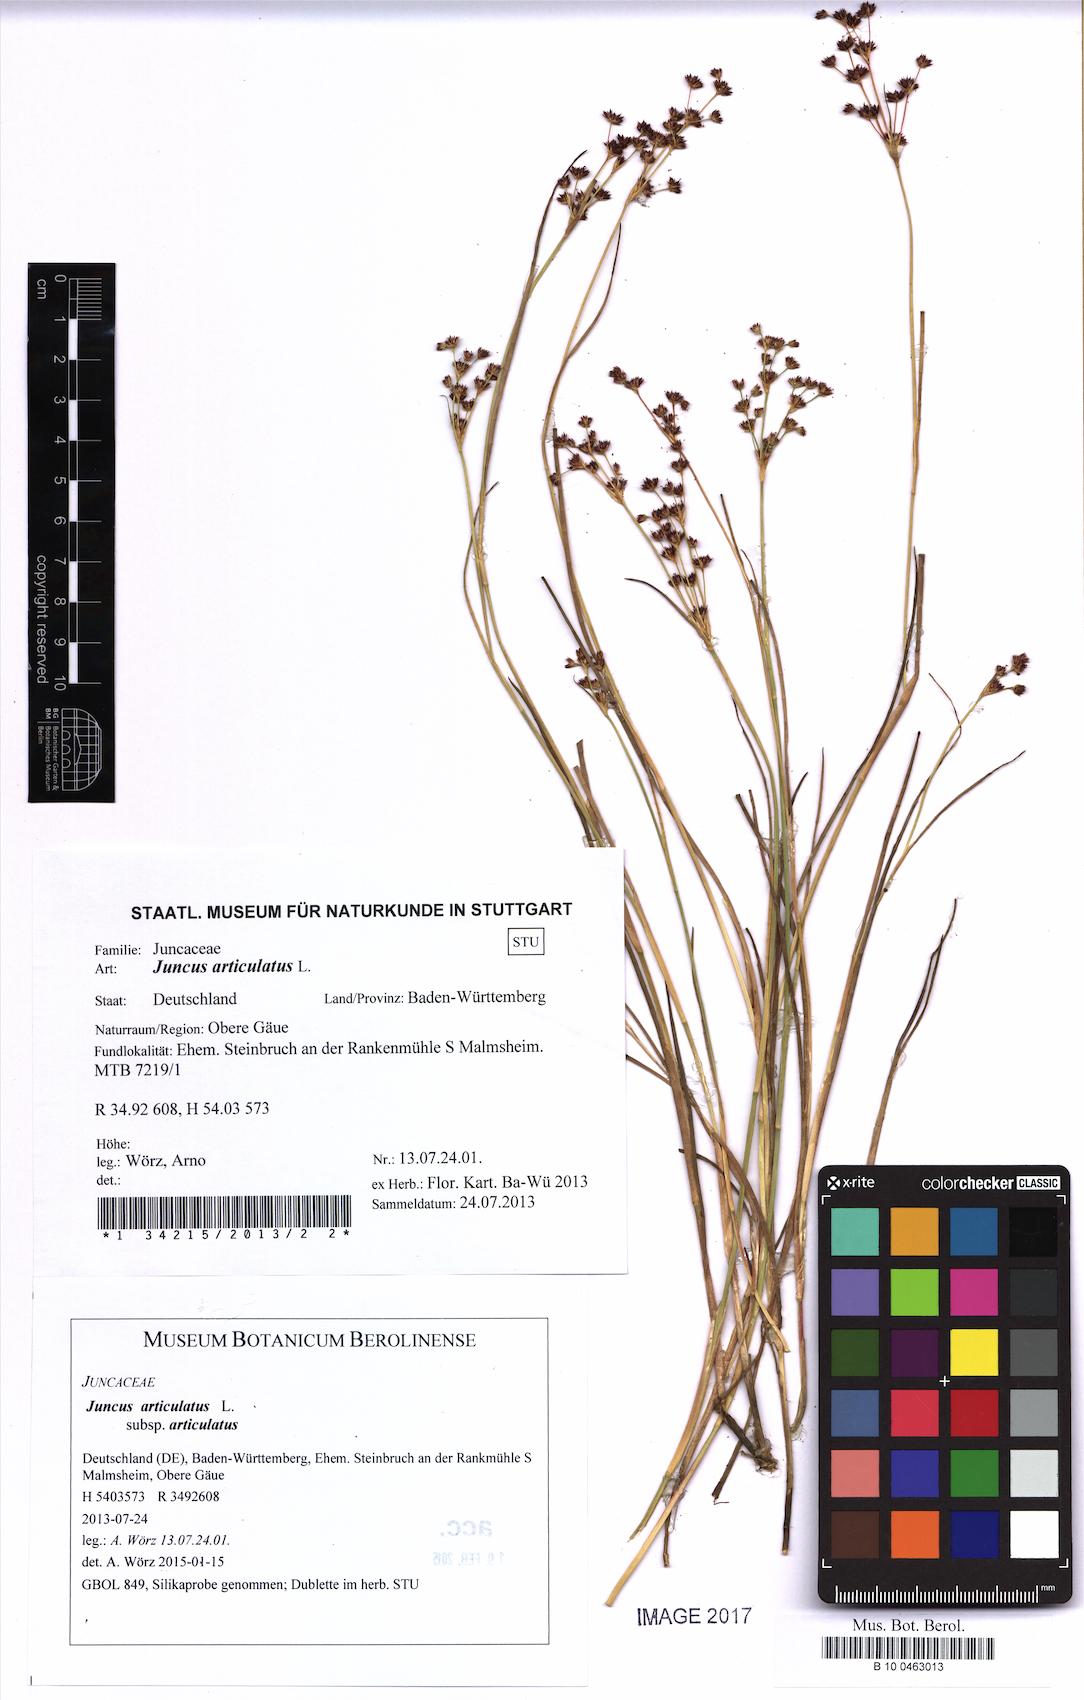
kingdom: Plantae
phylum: Tracheophyta
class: Liliopsida
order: Poales
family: Juncaceae
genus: Juncus
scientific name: Juncus articulatus
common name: Jointed rush
